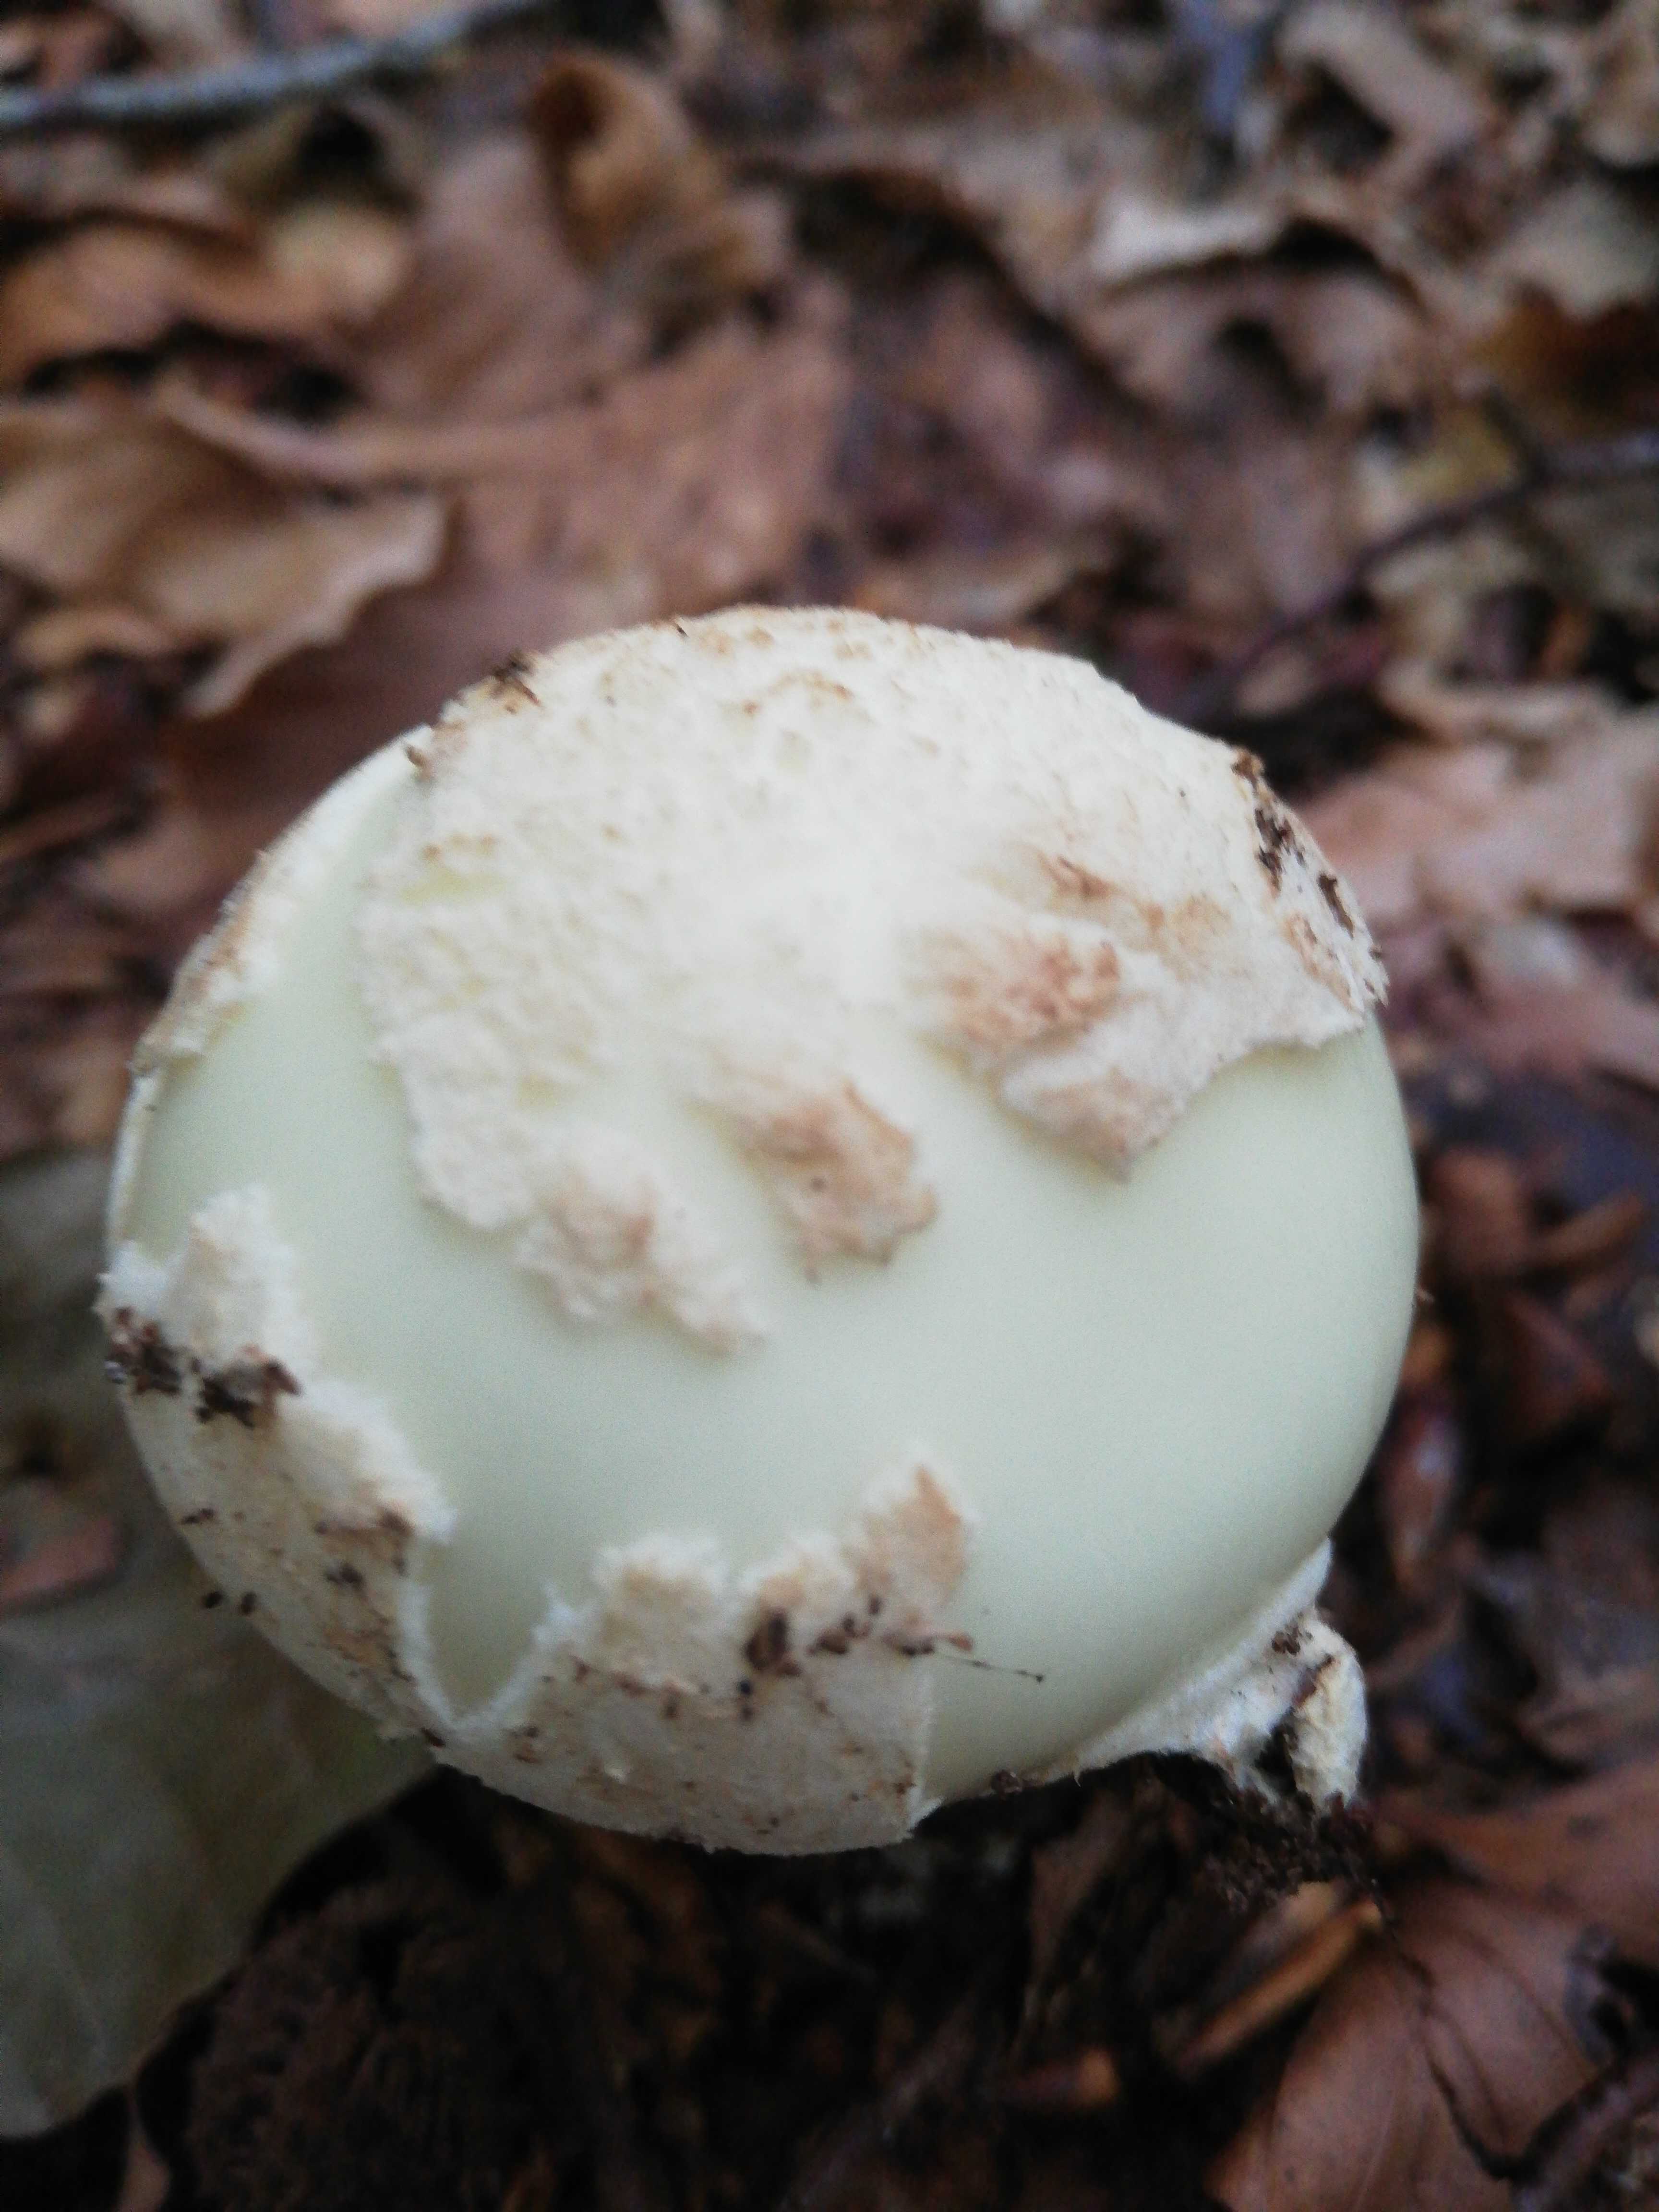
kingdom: Fungi
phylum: Basidiomycota
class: Agaricomycetes
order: Agaricales
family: Amanitaceae
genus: Amanita
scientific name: Amanita citrina
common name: kugleknoldet fluesvamp
